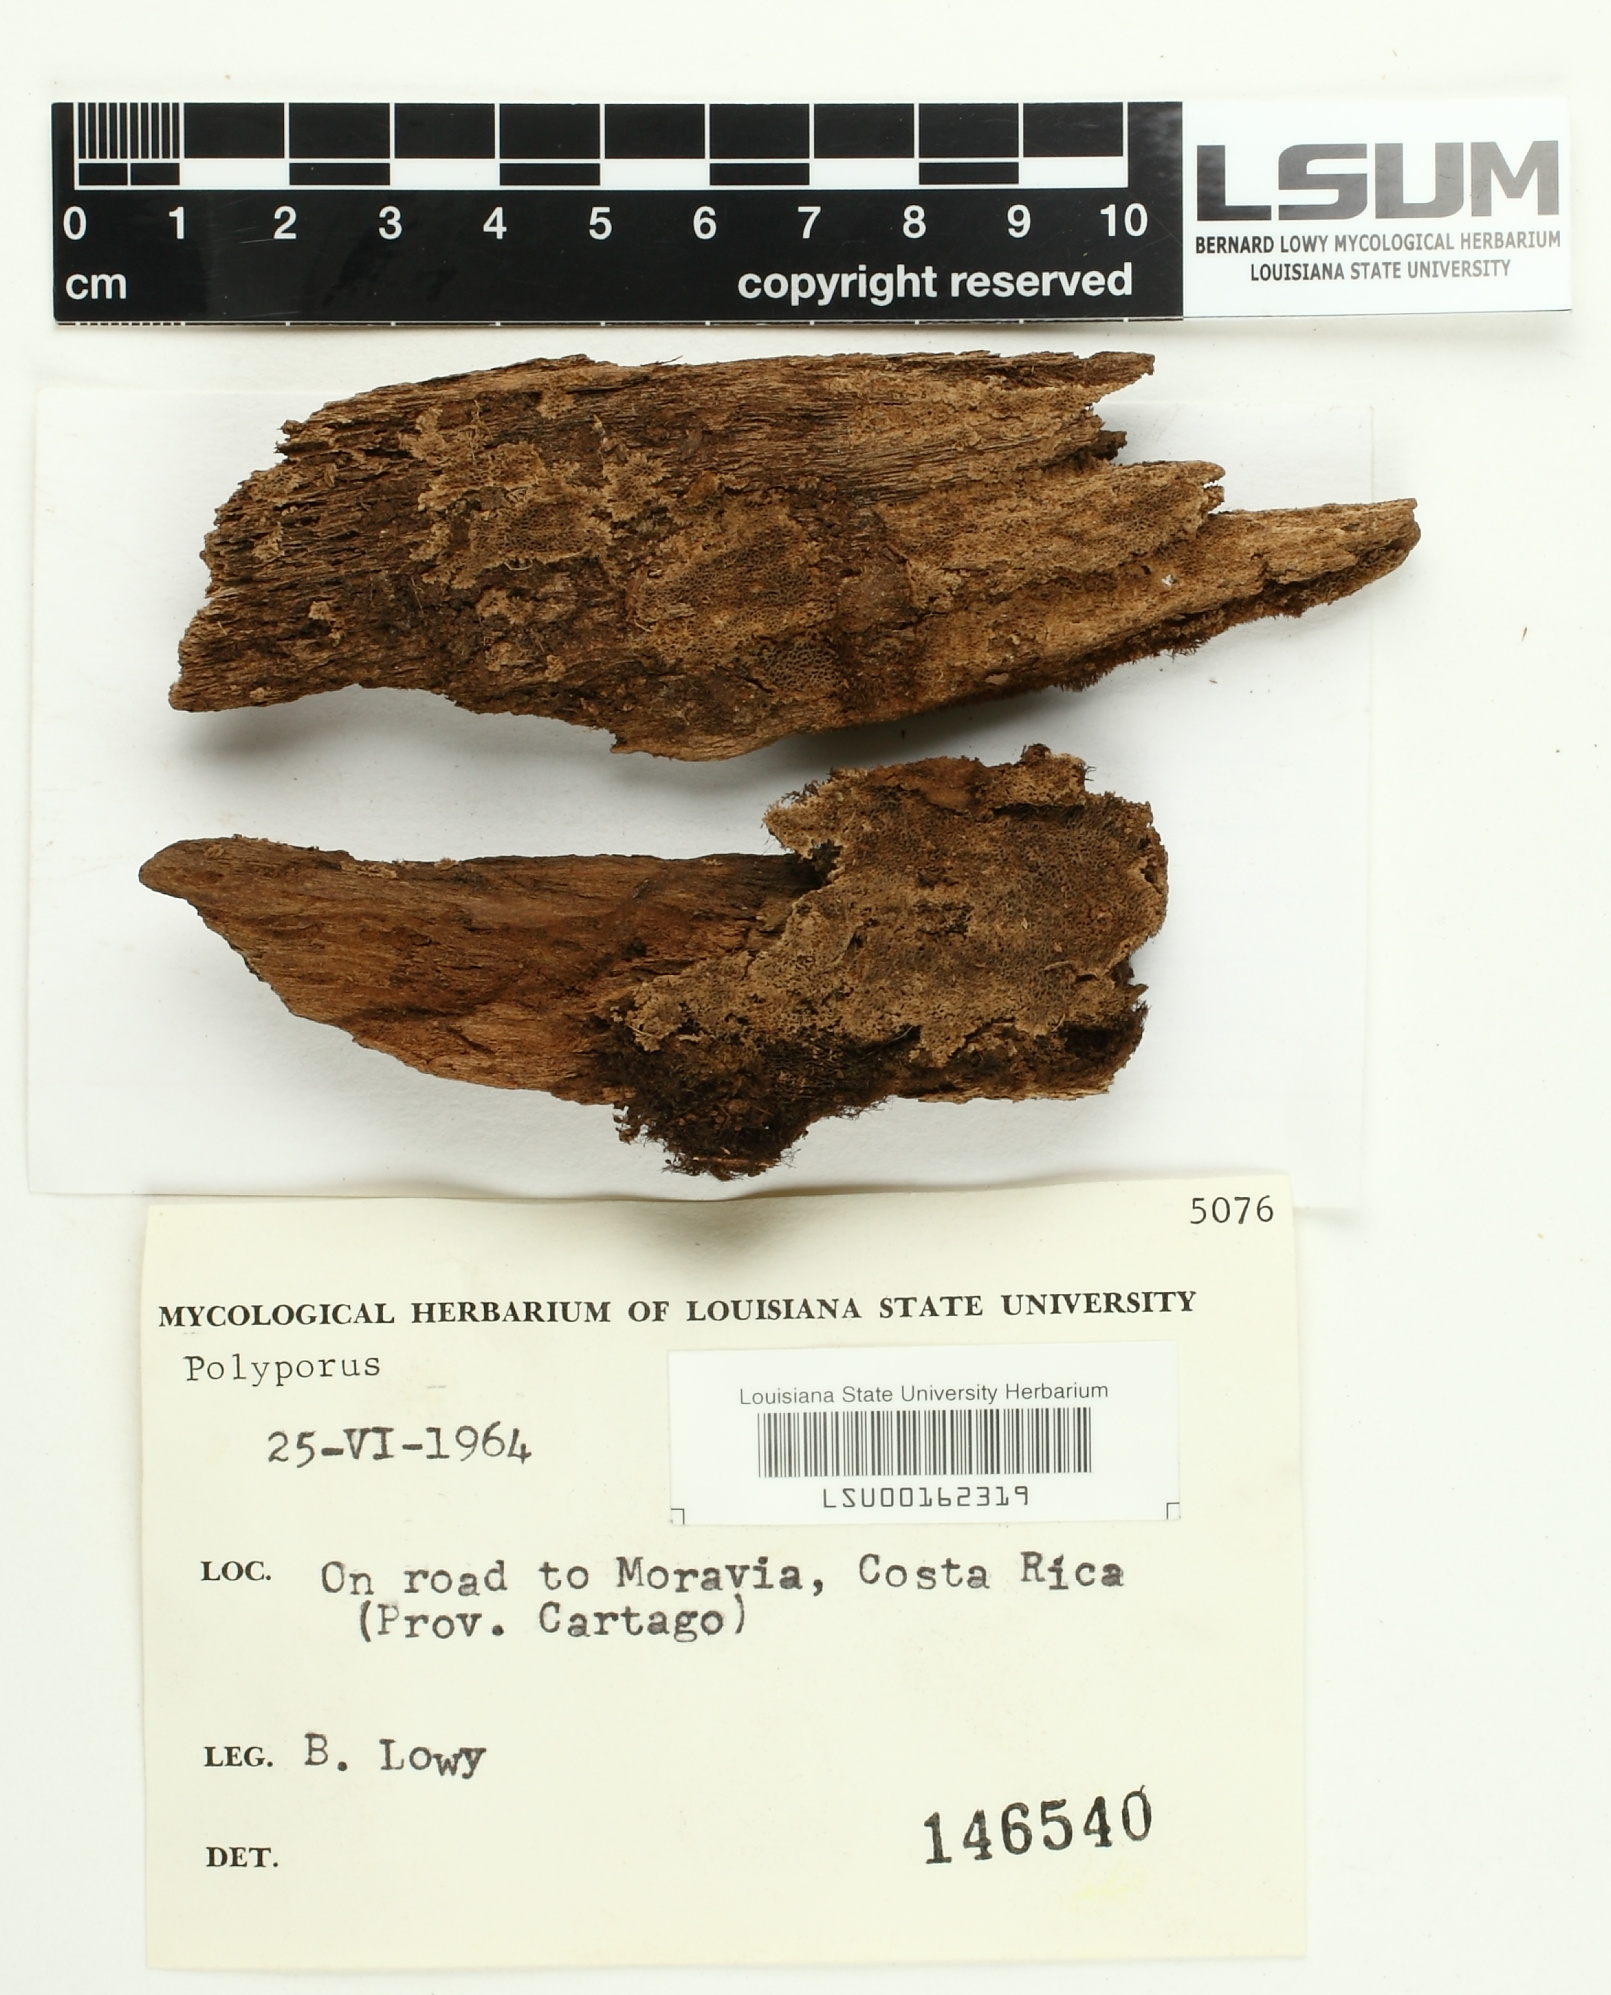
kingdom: Fungi
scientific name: Fungi
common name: Fungi
